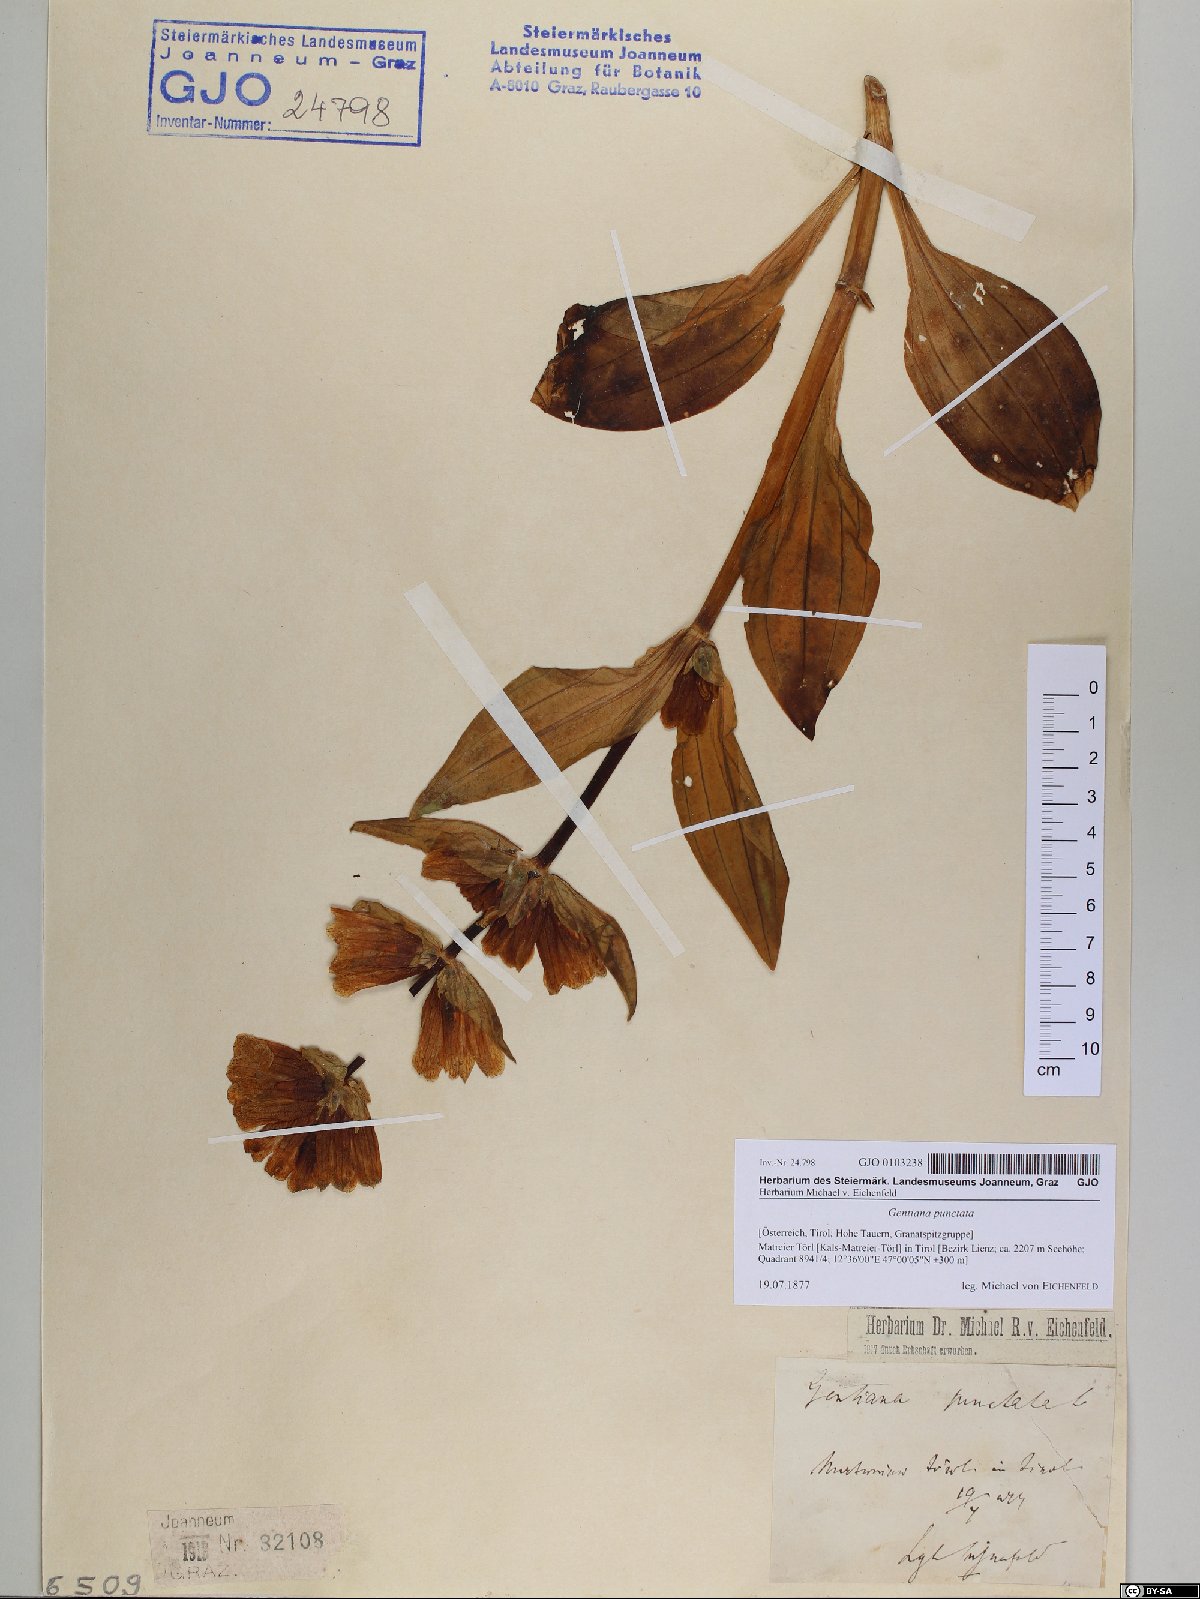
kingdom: Plantae
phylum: Tracheophyta
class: Magnoliopsida
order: Gentianales
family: Gentianaceae
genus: Gentiana
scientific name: Gentiana punctata
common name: Spotted gentian
